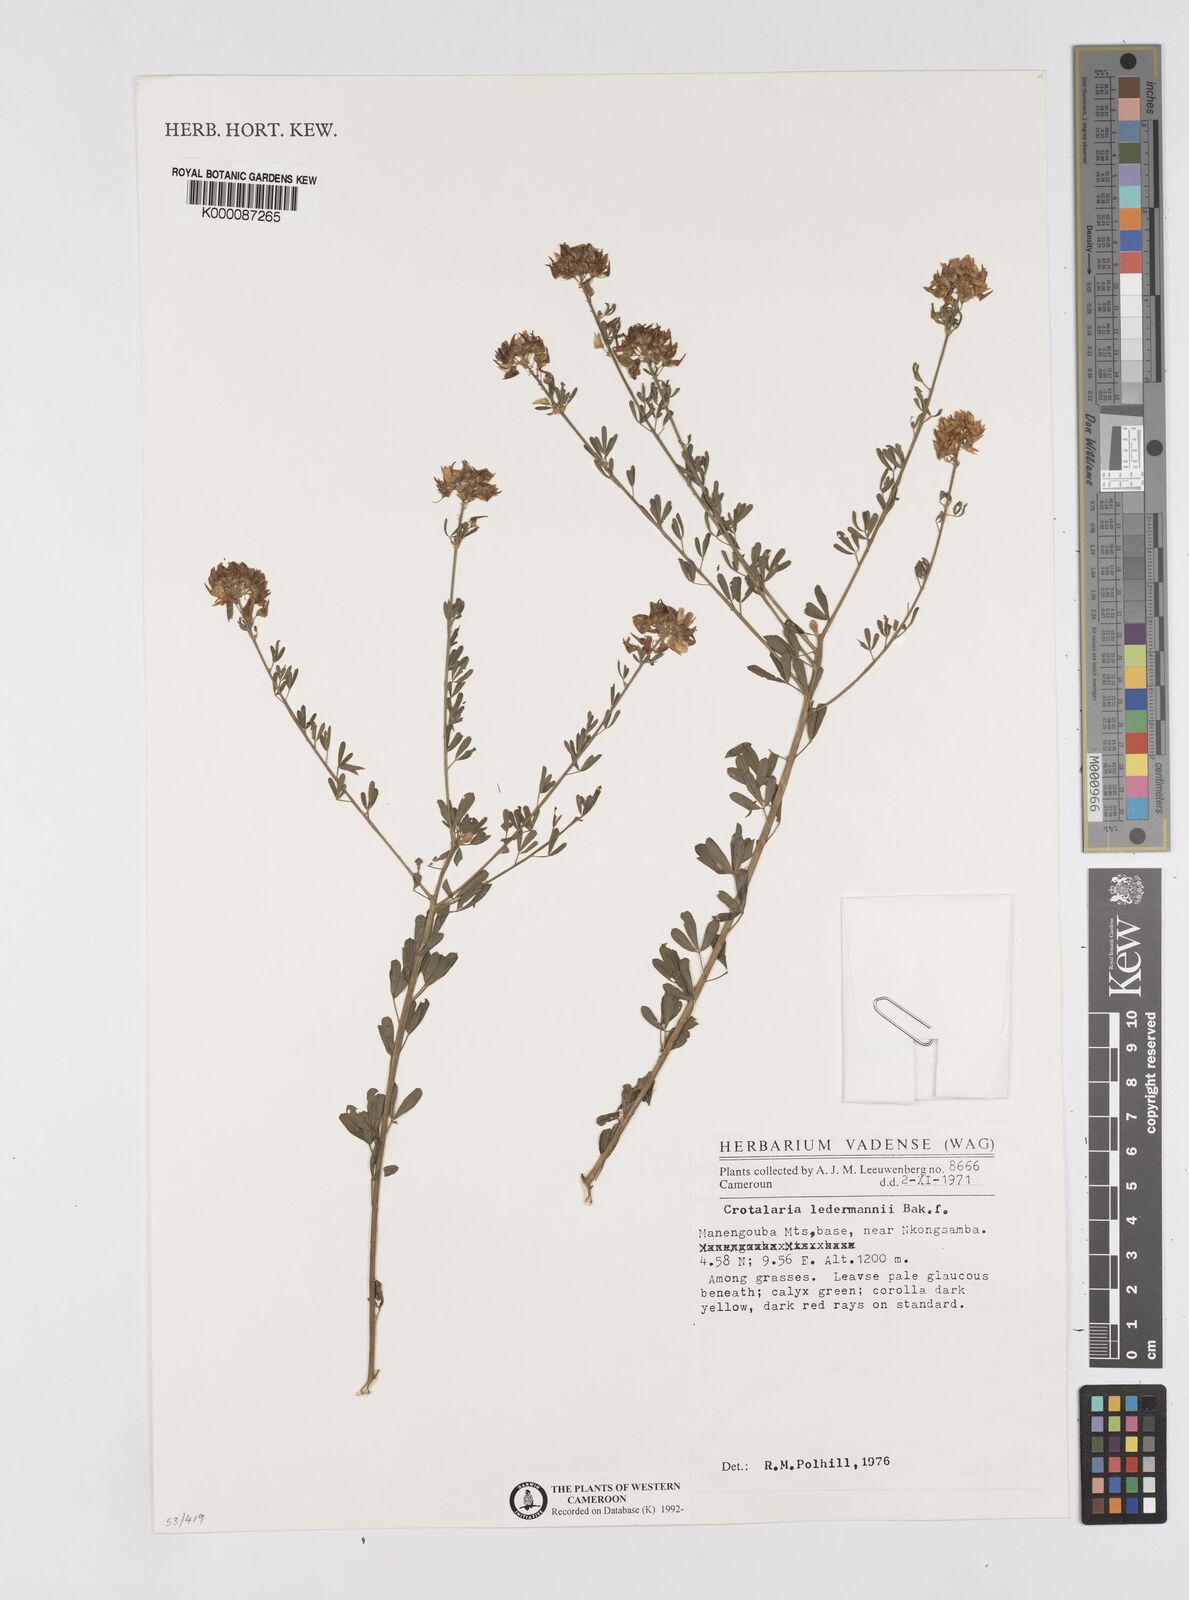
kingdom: Plantae
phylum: Tracheophyta
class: Magnoliopsida
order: Fabales
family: Fabaceae
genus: Crotalaria
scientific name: Crotalaria ledermannii
